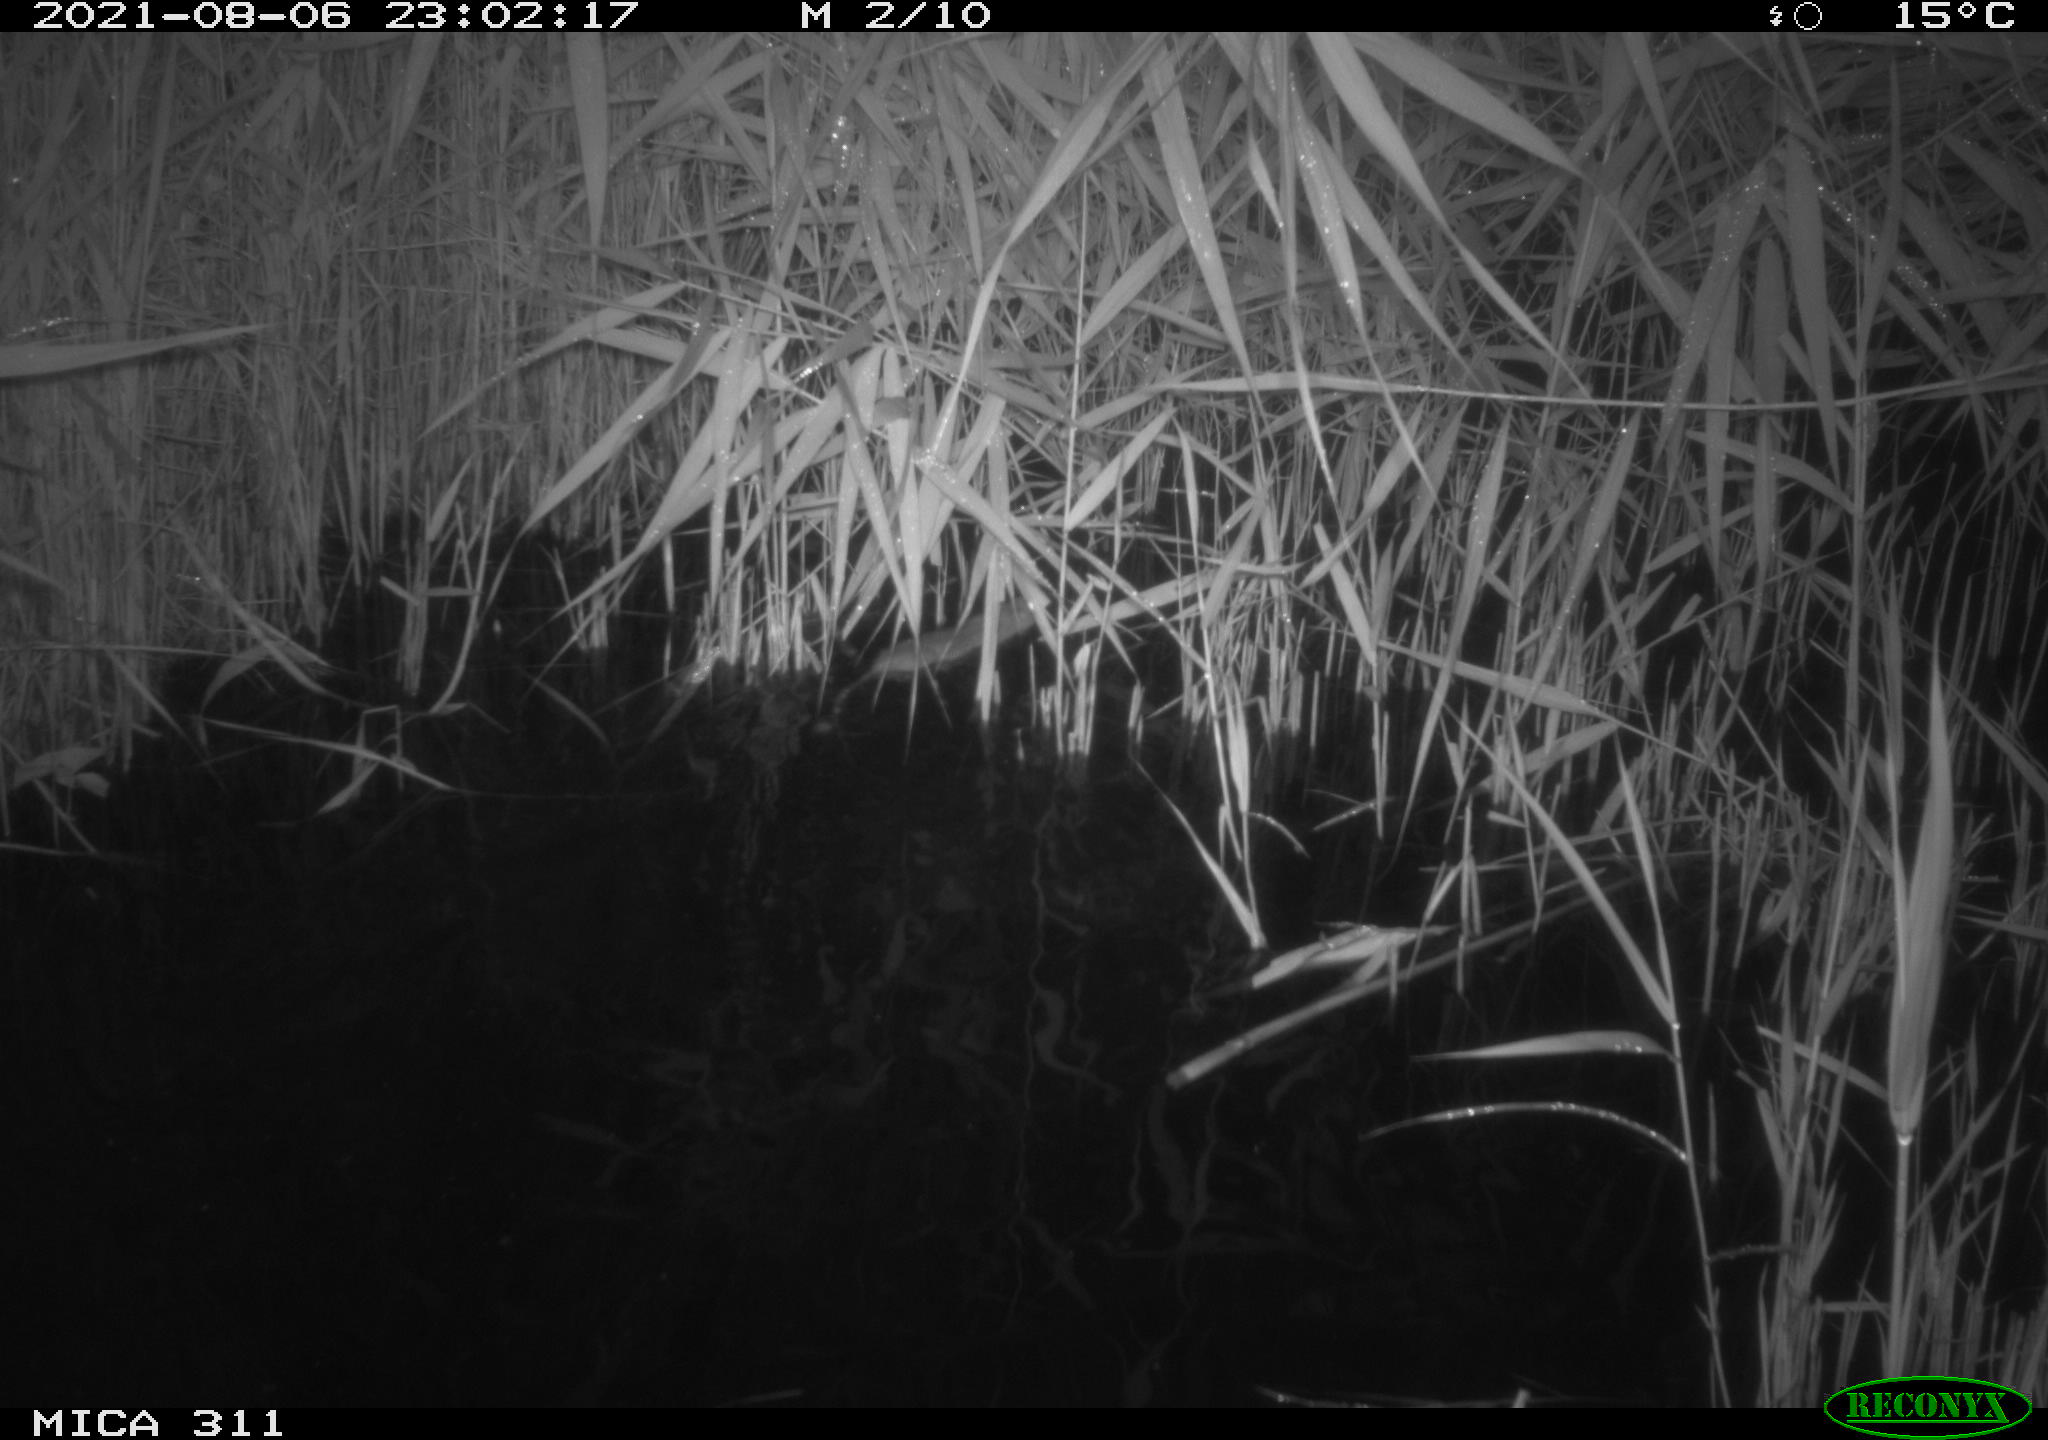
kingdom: Animalia
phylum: Chordata
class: Mammalia
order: Rodentia
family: Muridae
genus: Rattus
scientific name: Rattus norvegicus
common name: Brown rat
